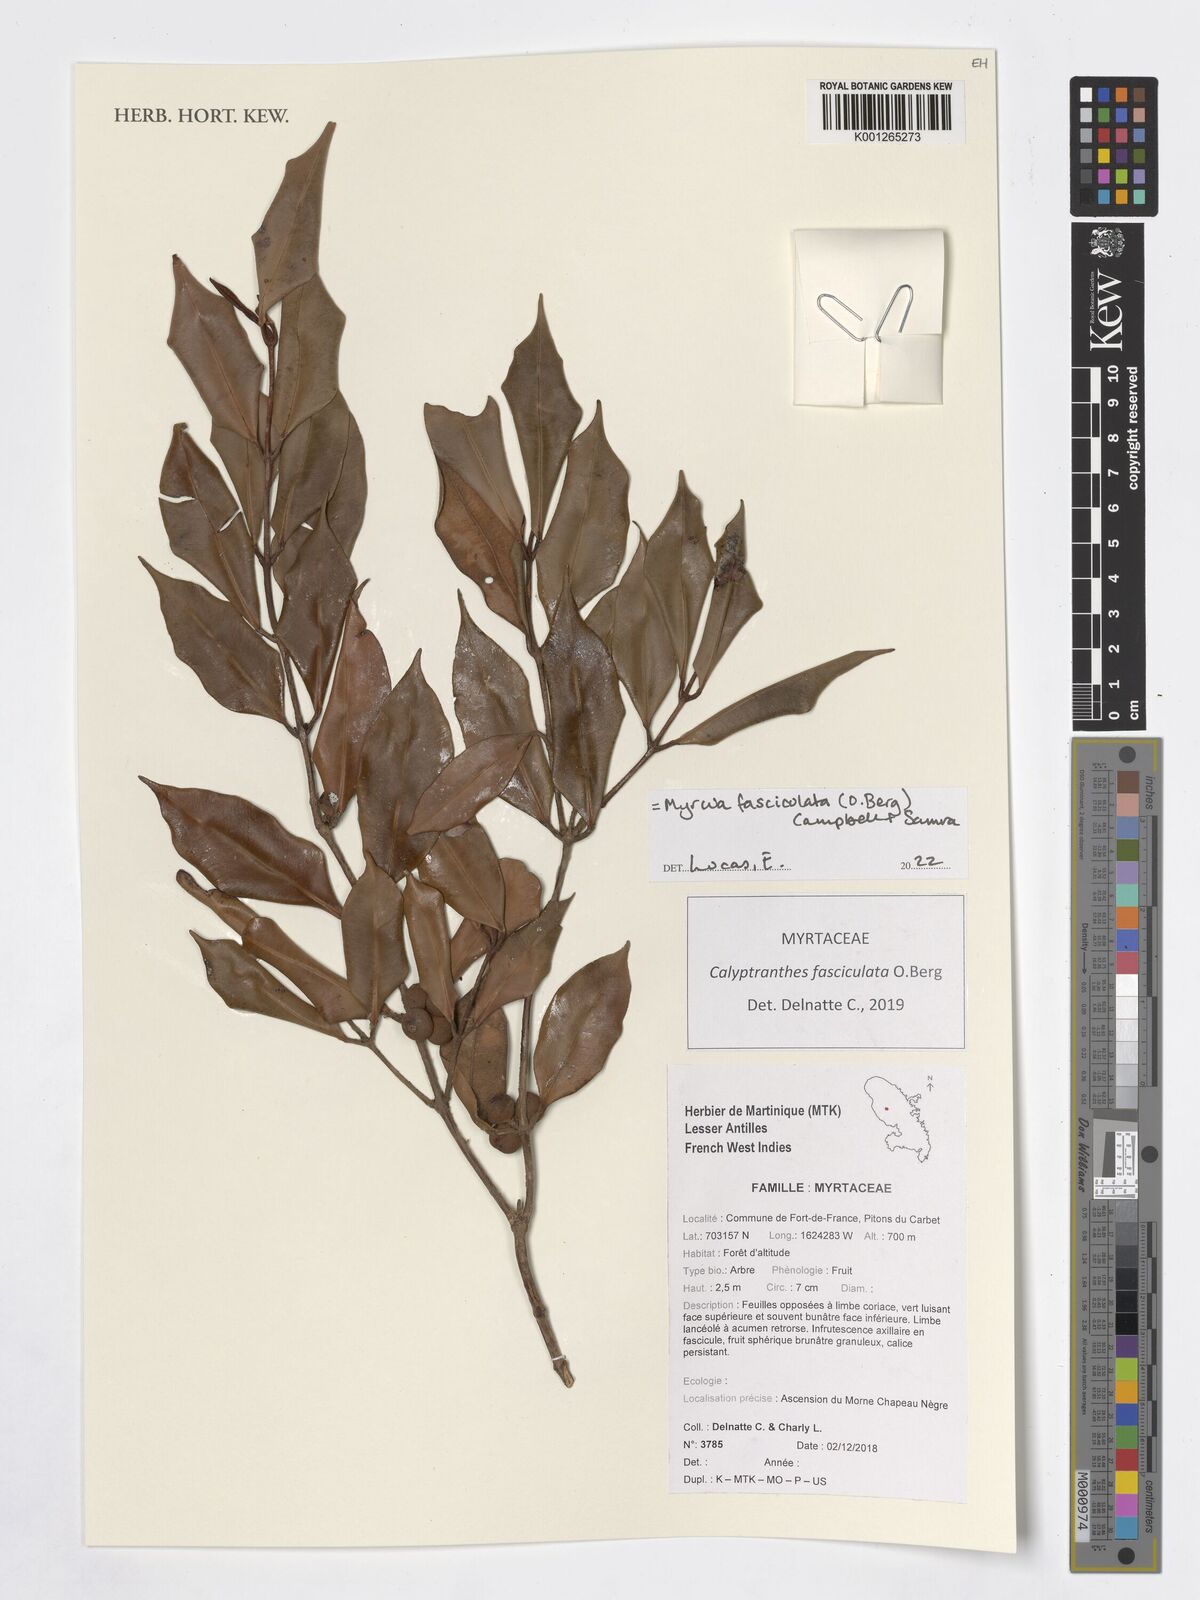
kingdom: Plantae
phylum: Tracheophyta
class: Magnoliopsida
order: Myrtales
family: Myrtaceae
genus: Myrcia
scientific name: Myrcia fasciculata
